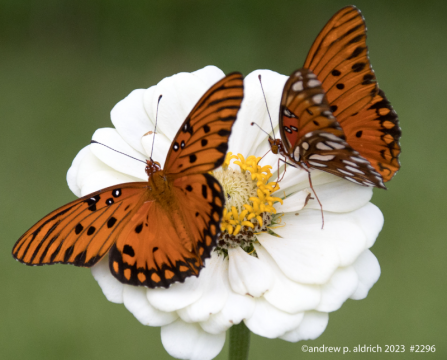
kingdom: Animalia
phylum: Arthropoda
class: Insecta
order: Lepidoptera
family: Nymphalidae
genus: Dione
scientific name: Dione vanillae
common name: Gulf Fritillary
